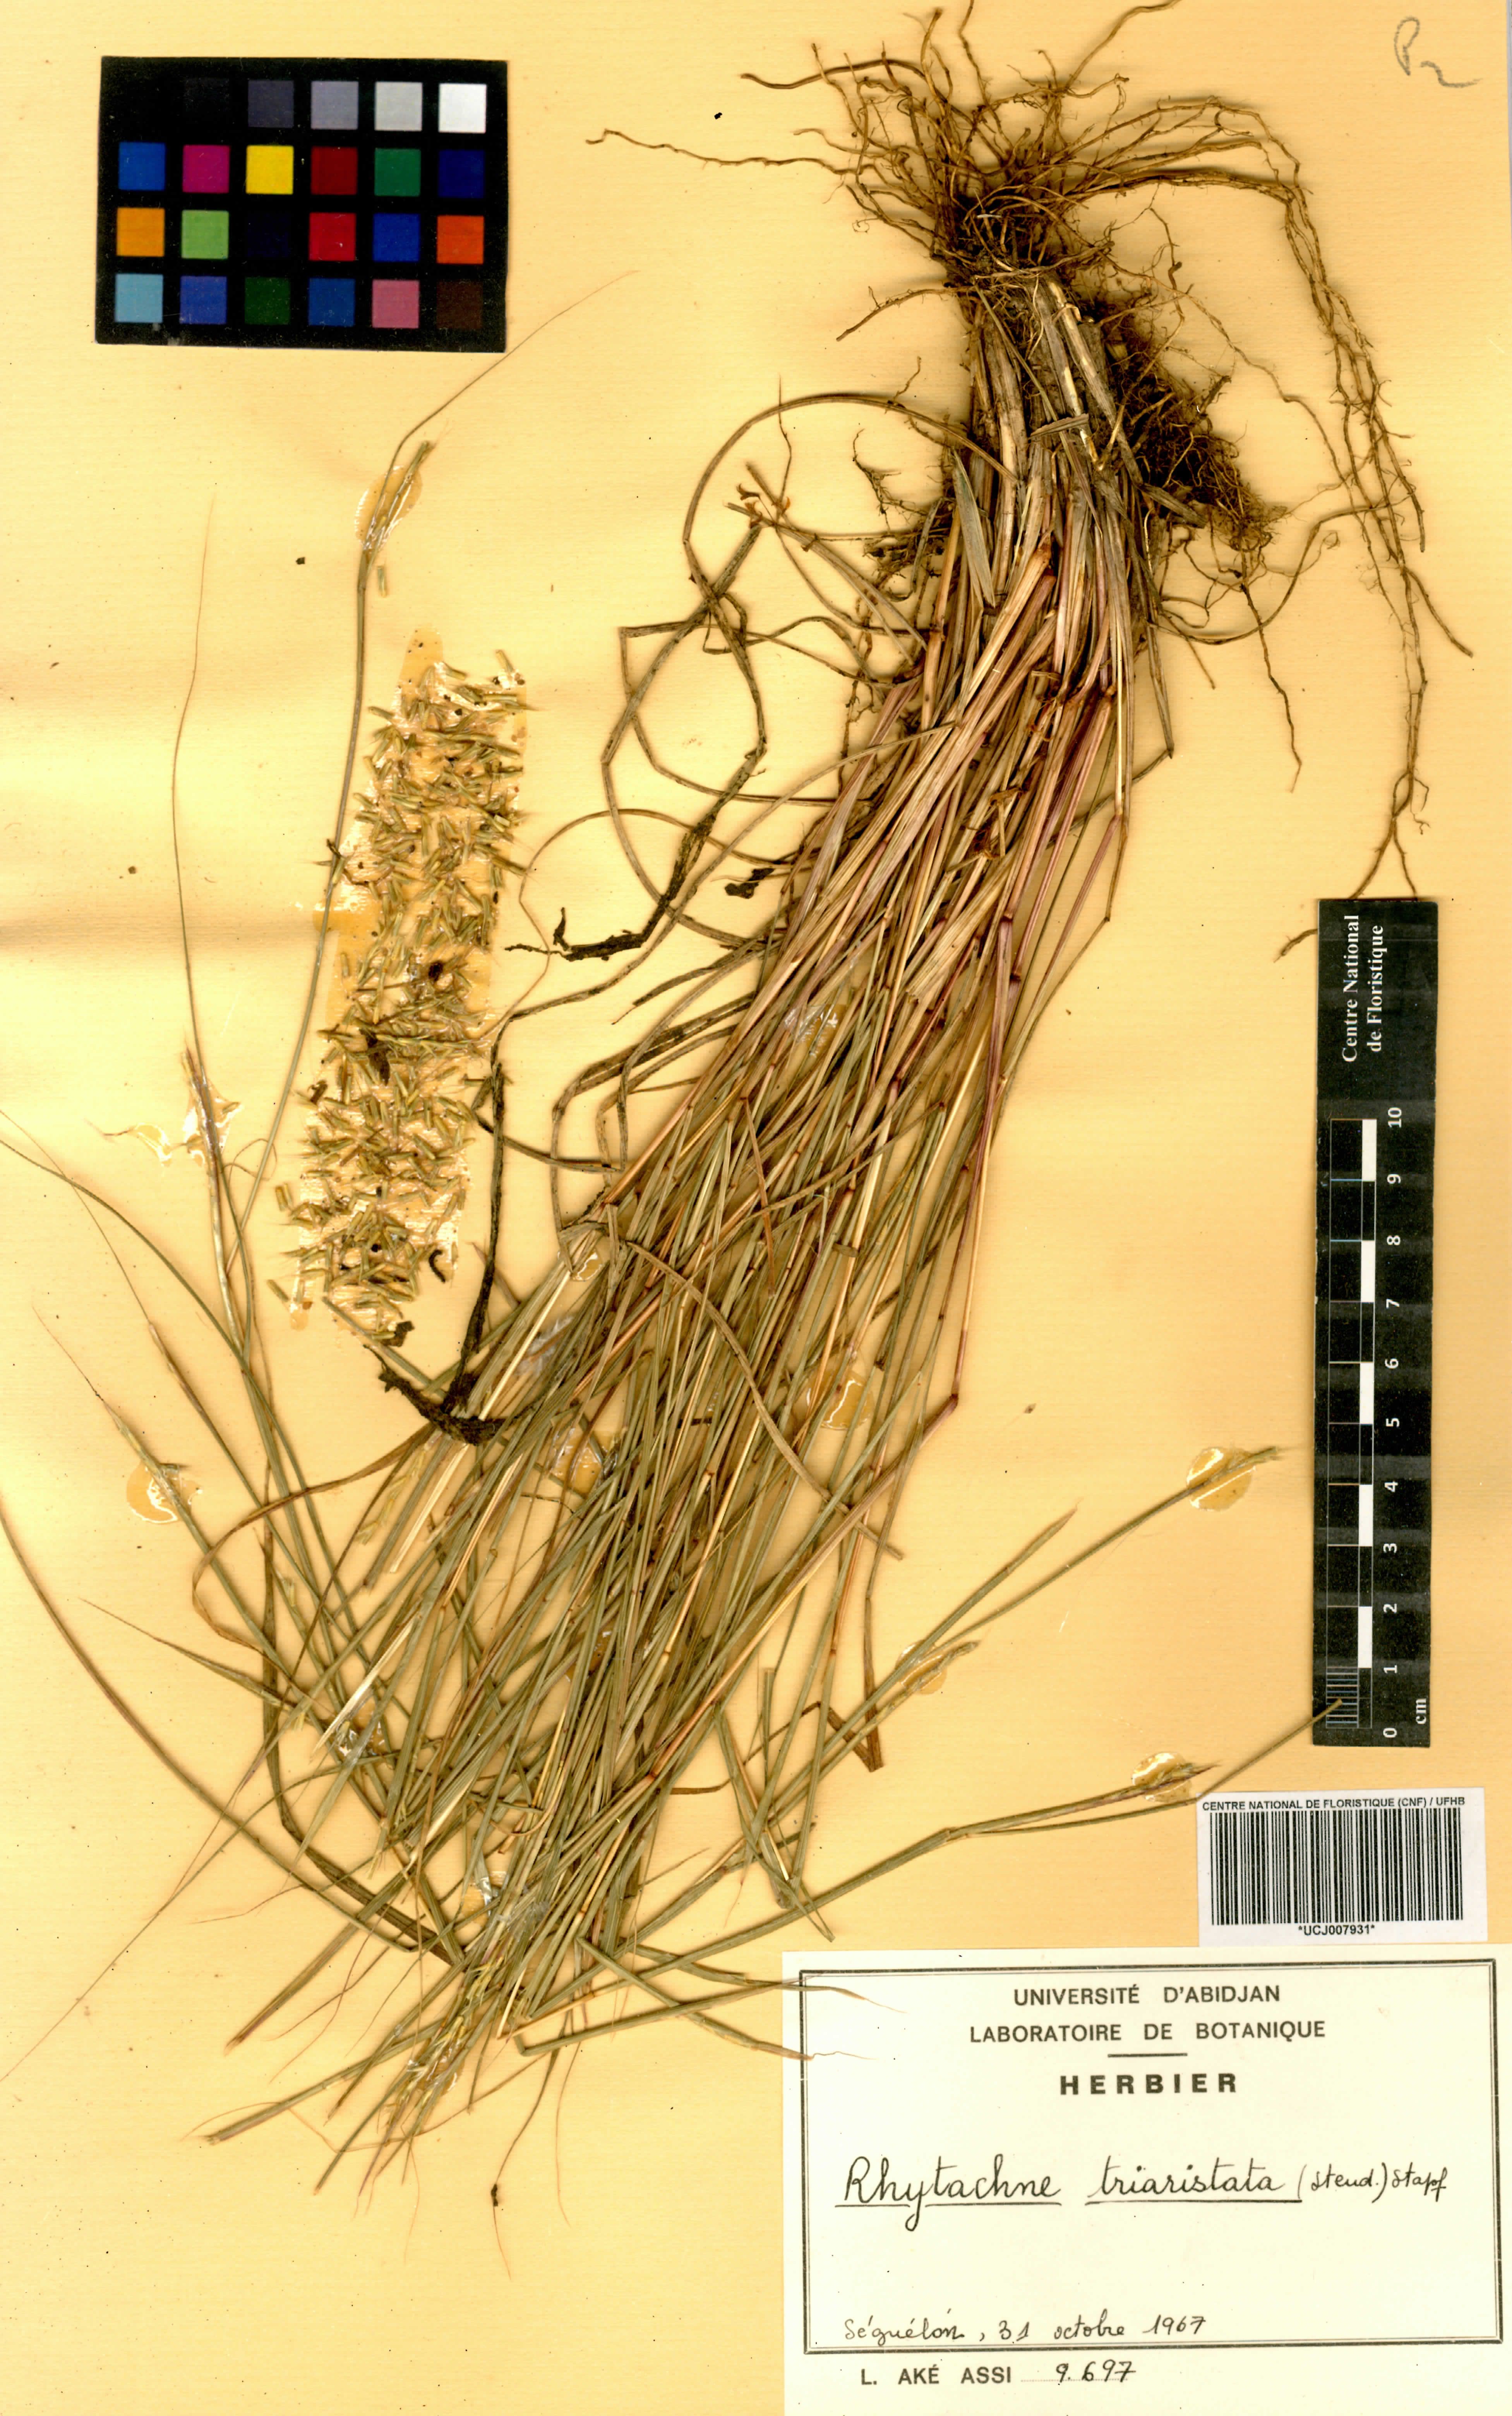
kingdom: Plantae
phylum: Tracheophyta
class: Liliopsida
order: Poales
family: Poaceae
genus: Rhytachne
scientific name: Rhytachne triaristata
